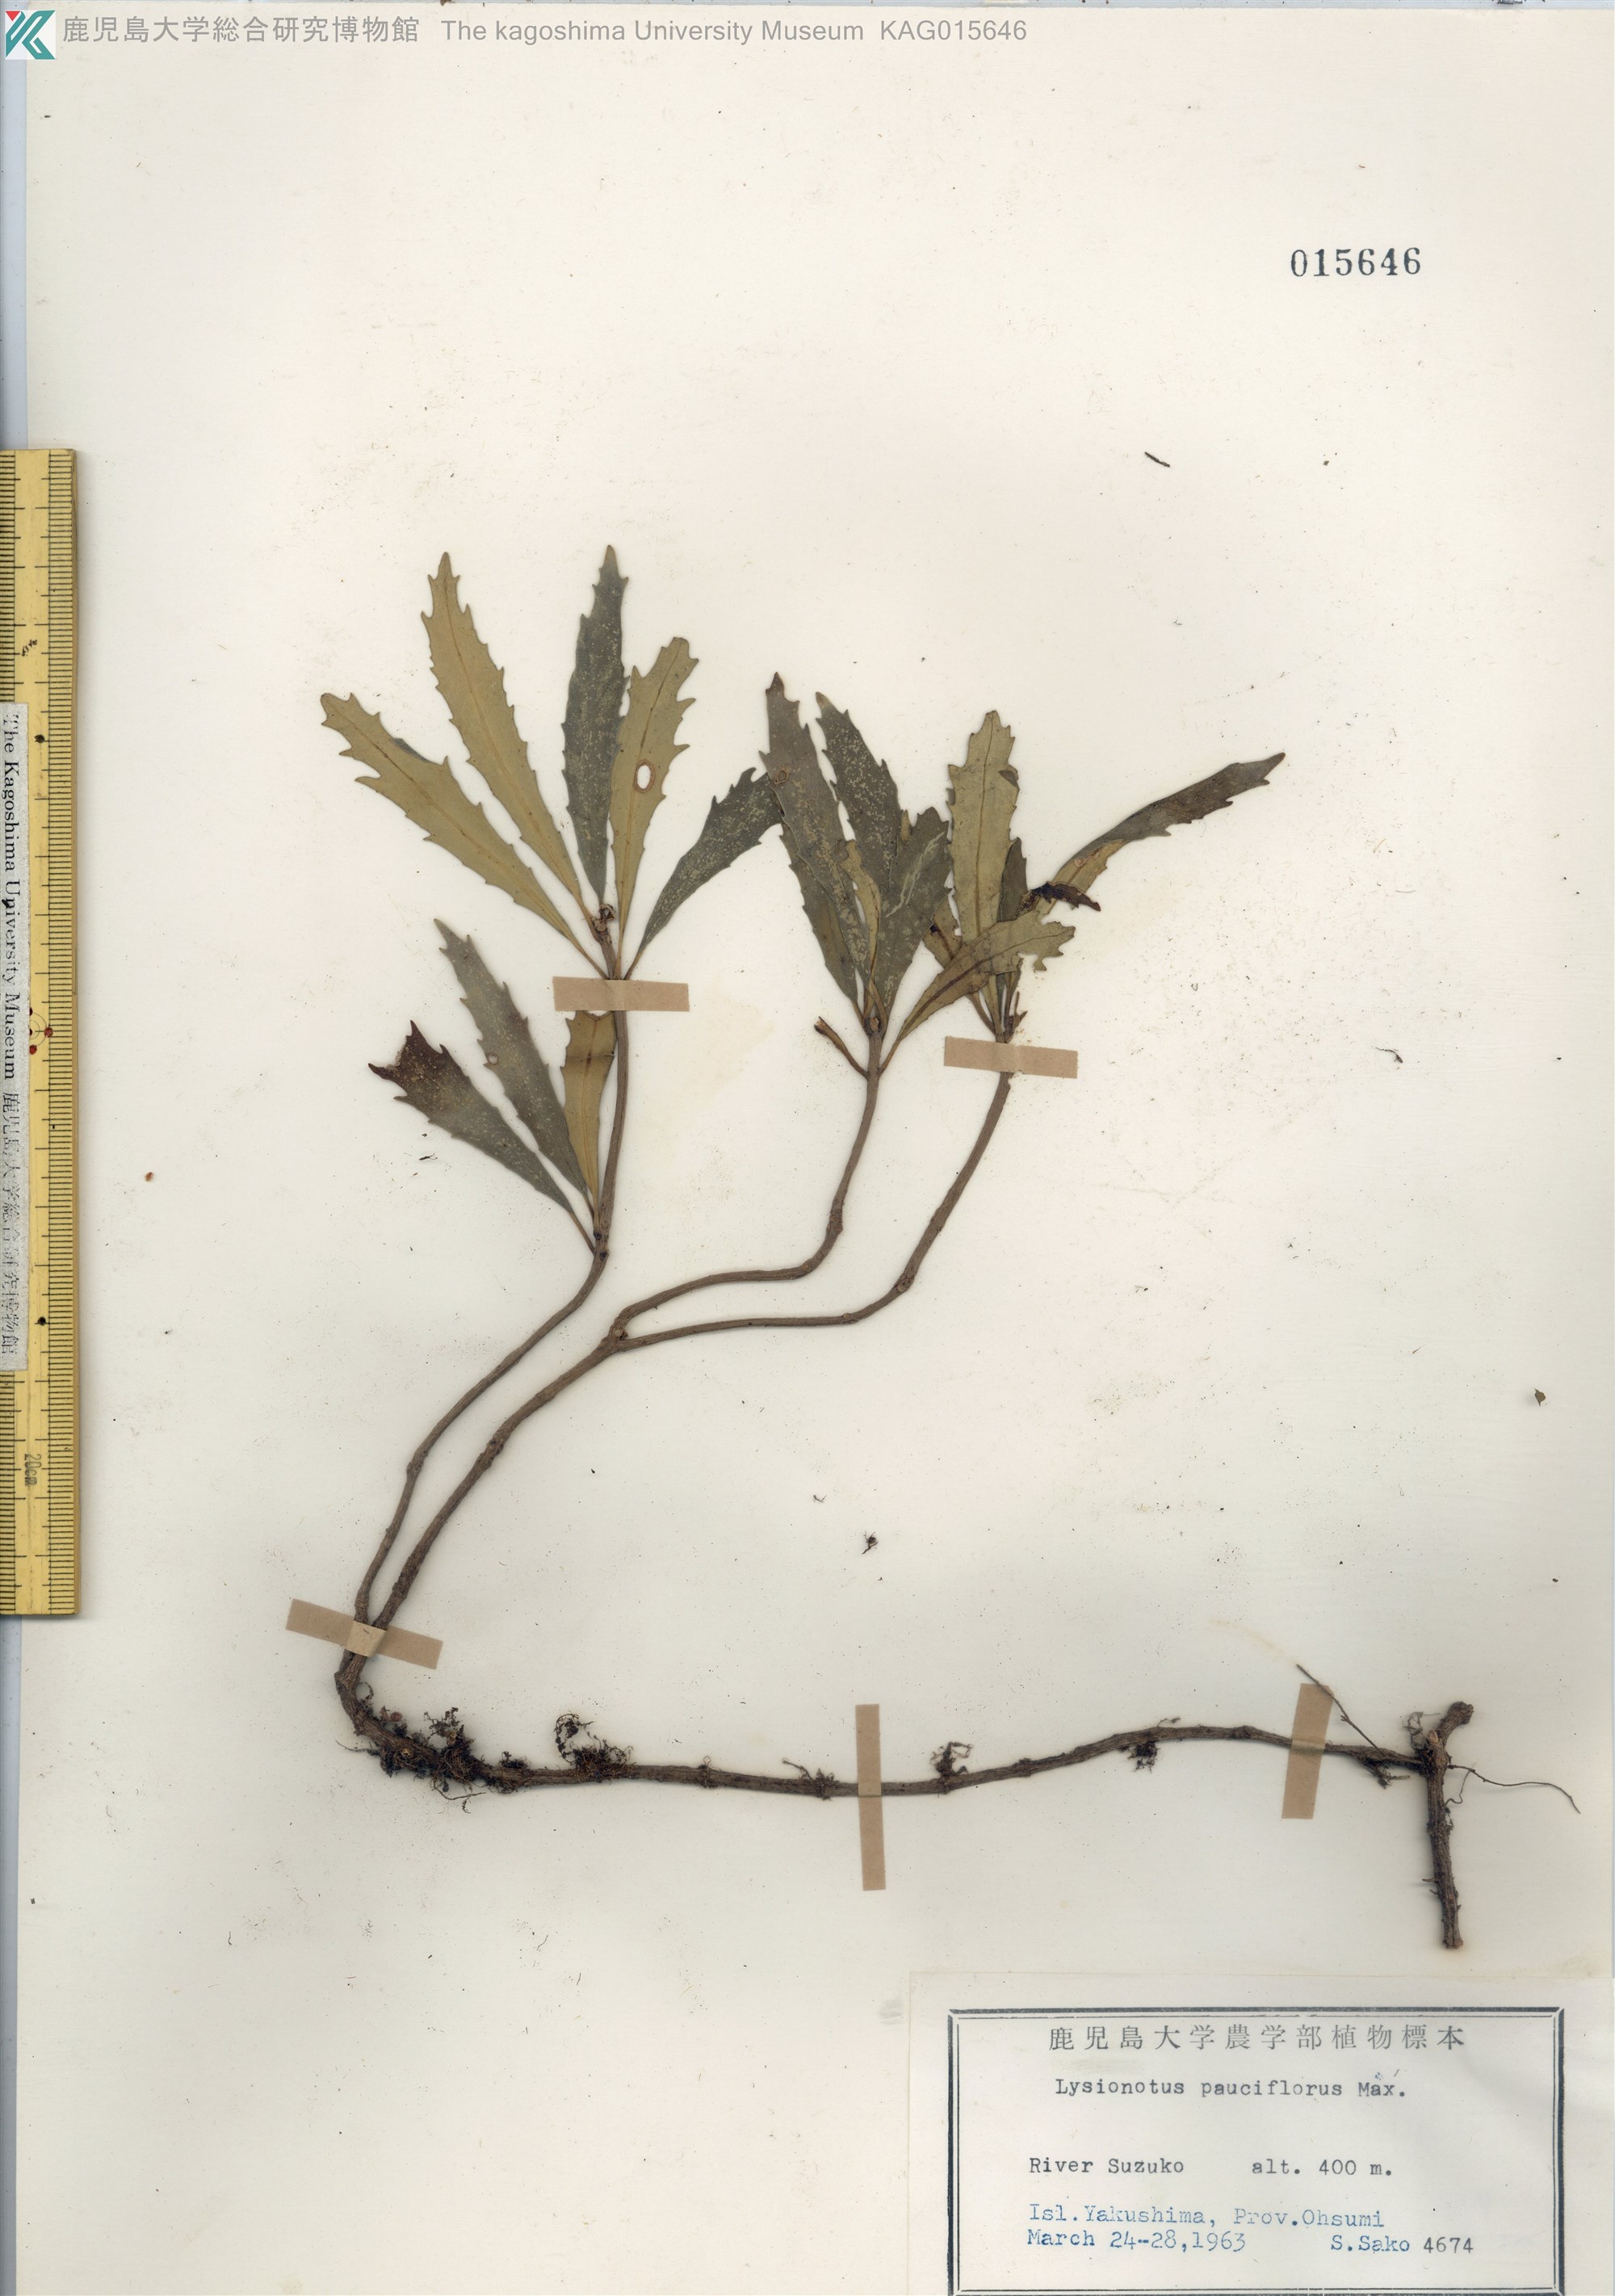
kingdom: Plantae
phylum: Tracheophyta
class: Magnoliopsida
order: Lamiales
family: Gesneriaceae
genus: Lysionotus
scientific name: Lysionotus pauciflorus
